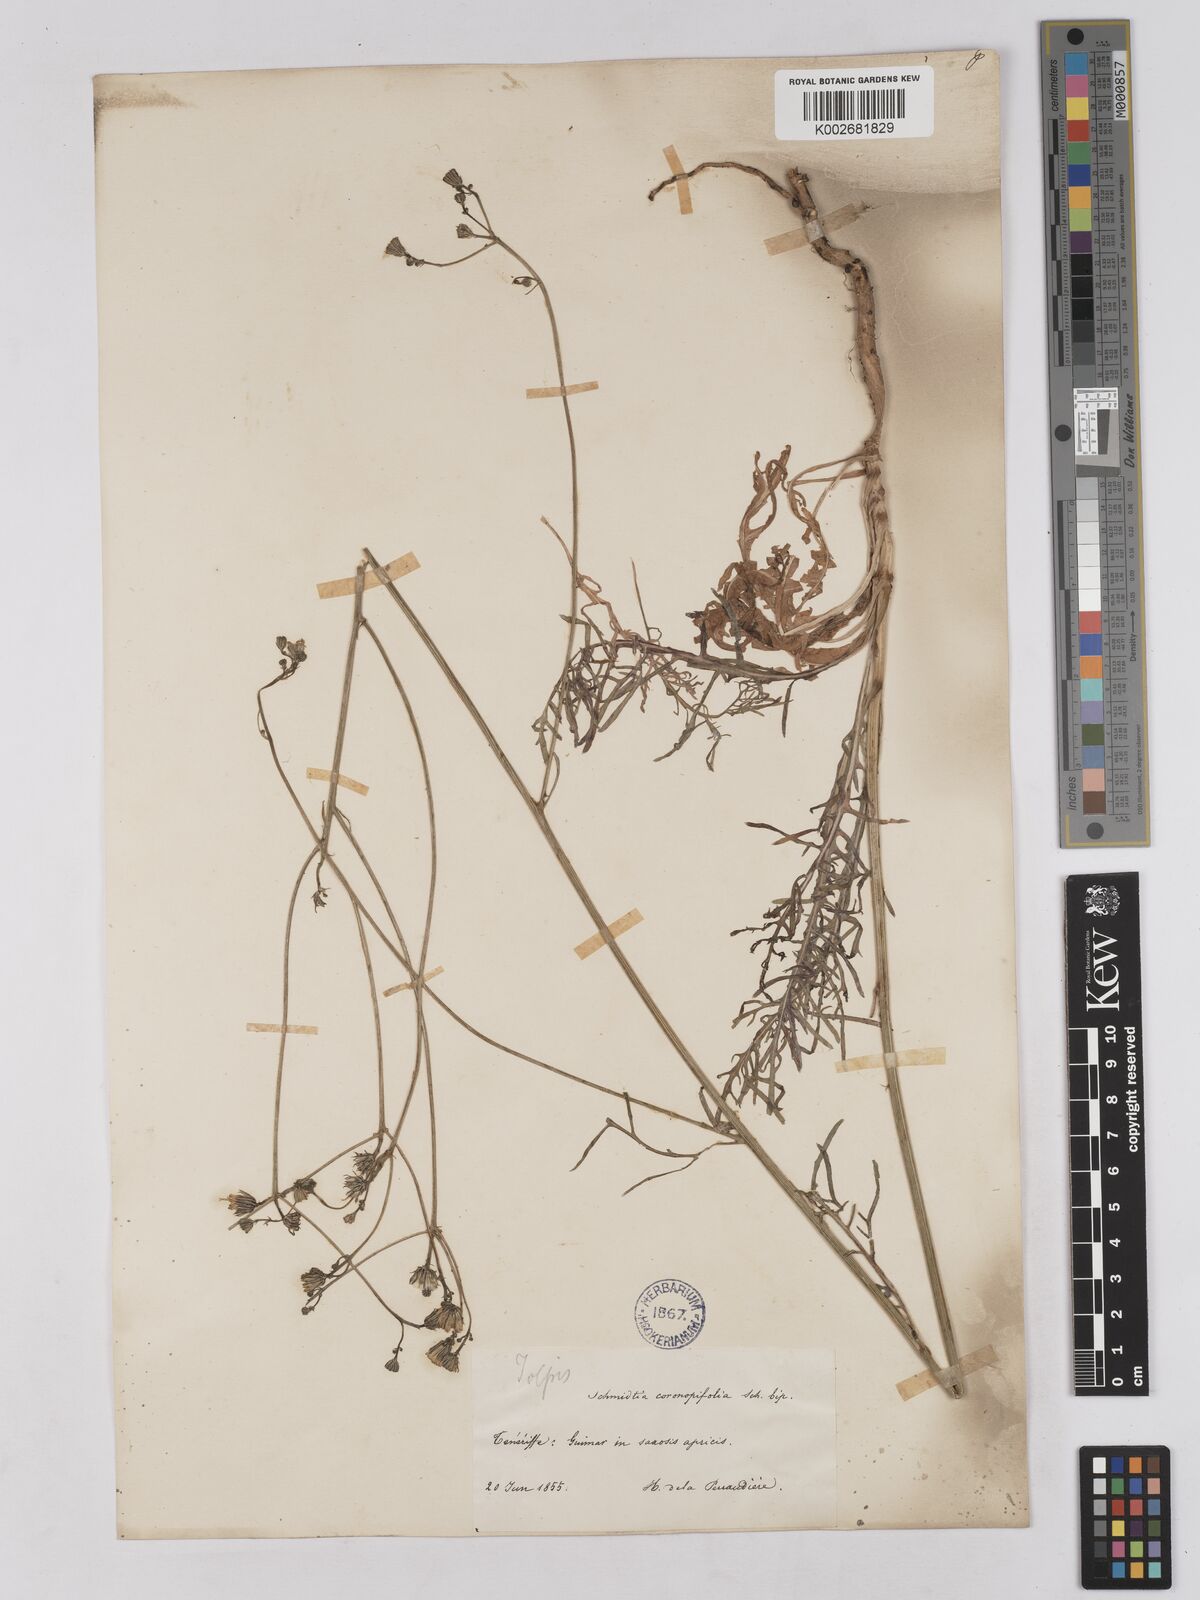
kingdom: Plantae
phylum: Tracheophyta
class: Magnoliopsida
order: Asterales
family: Asteraceae
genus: Tolpis
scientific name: Tolpis coronopifolia
